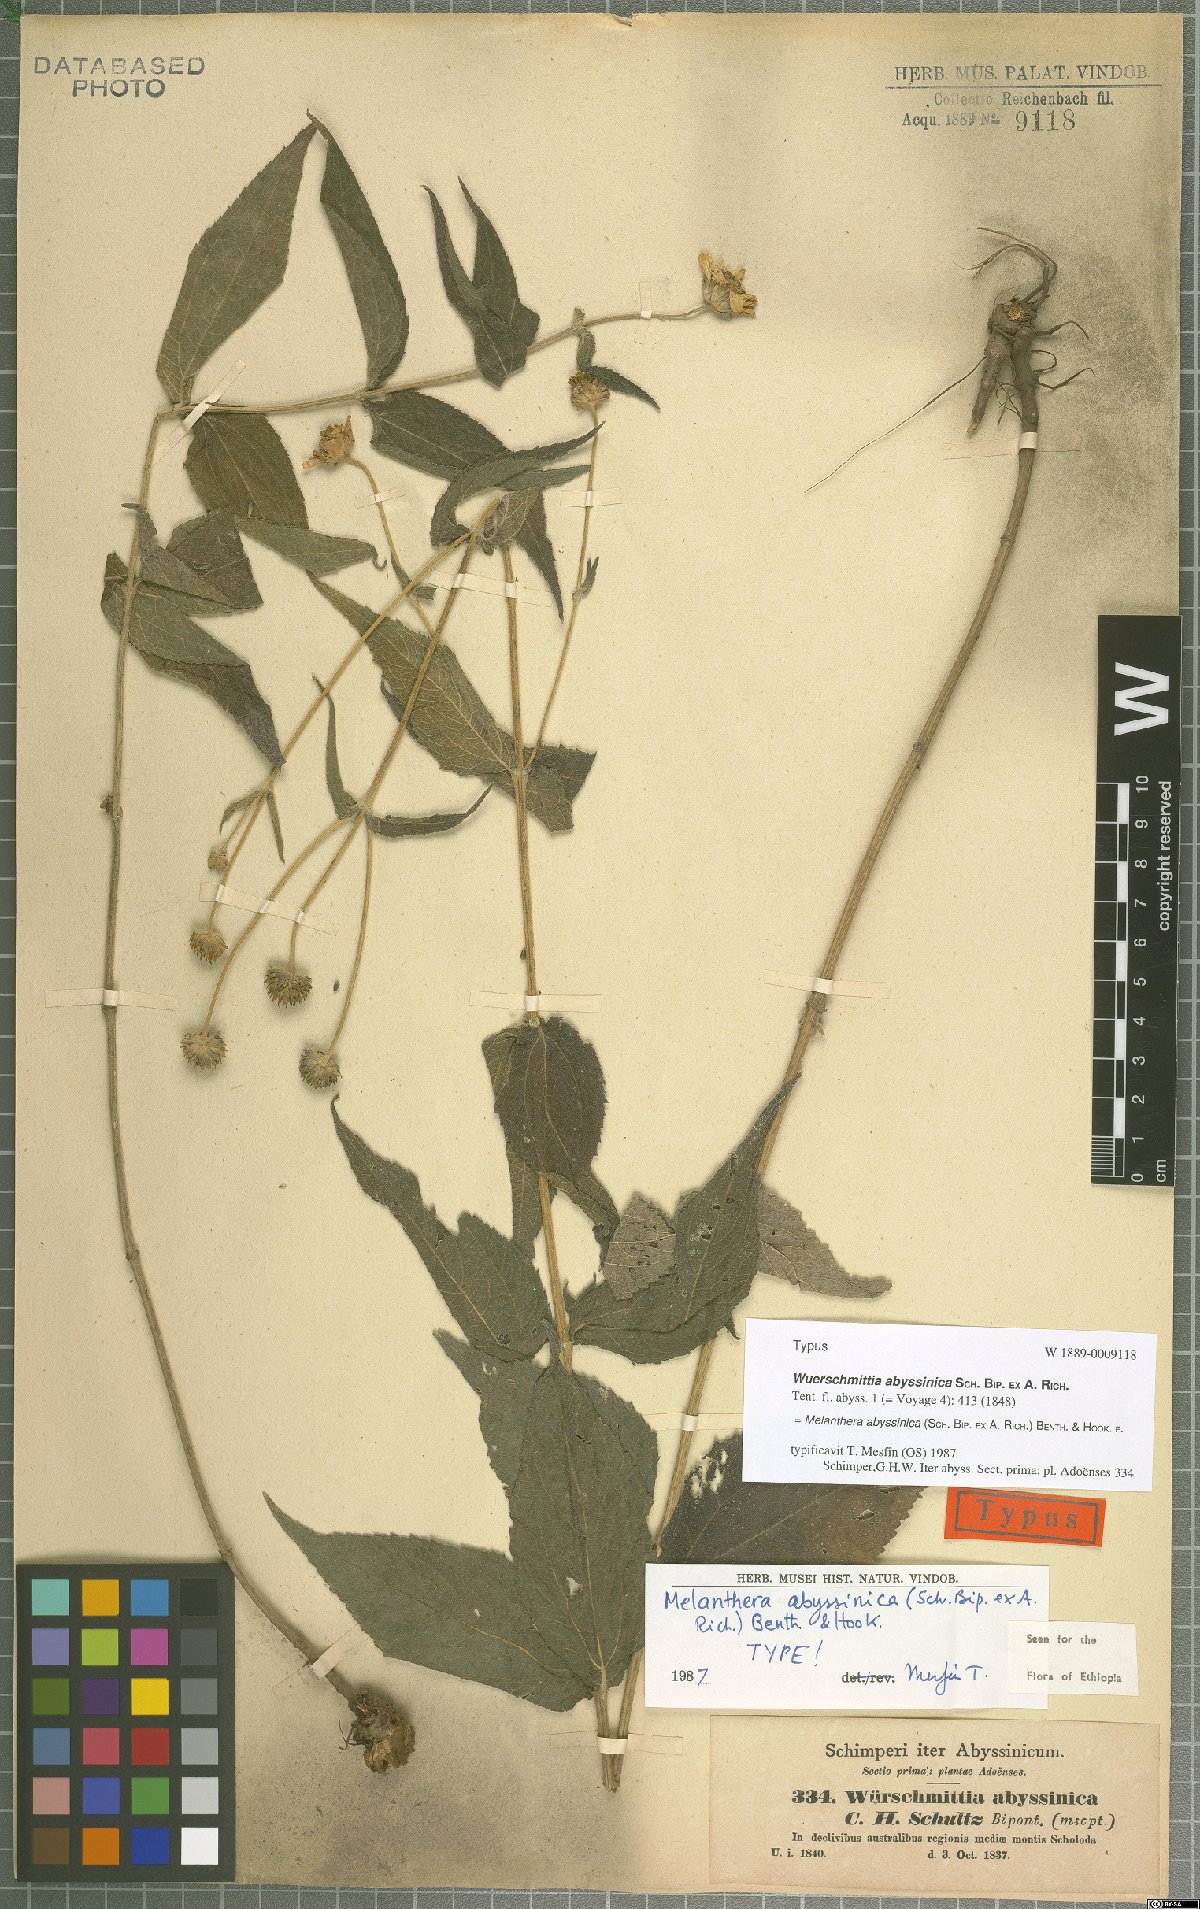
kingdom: Plantae
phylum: Tracheophyta
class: Magnoliopsida
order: Asterales
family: Asteraceae
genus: Lipotriche
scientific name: Lipotriche abyssinica
